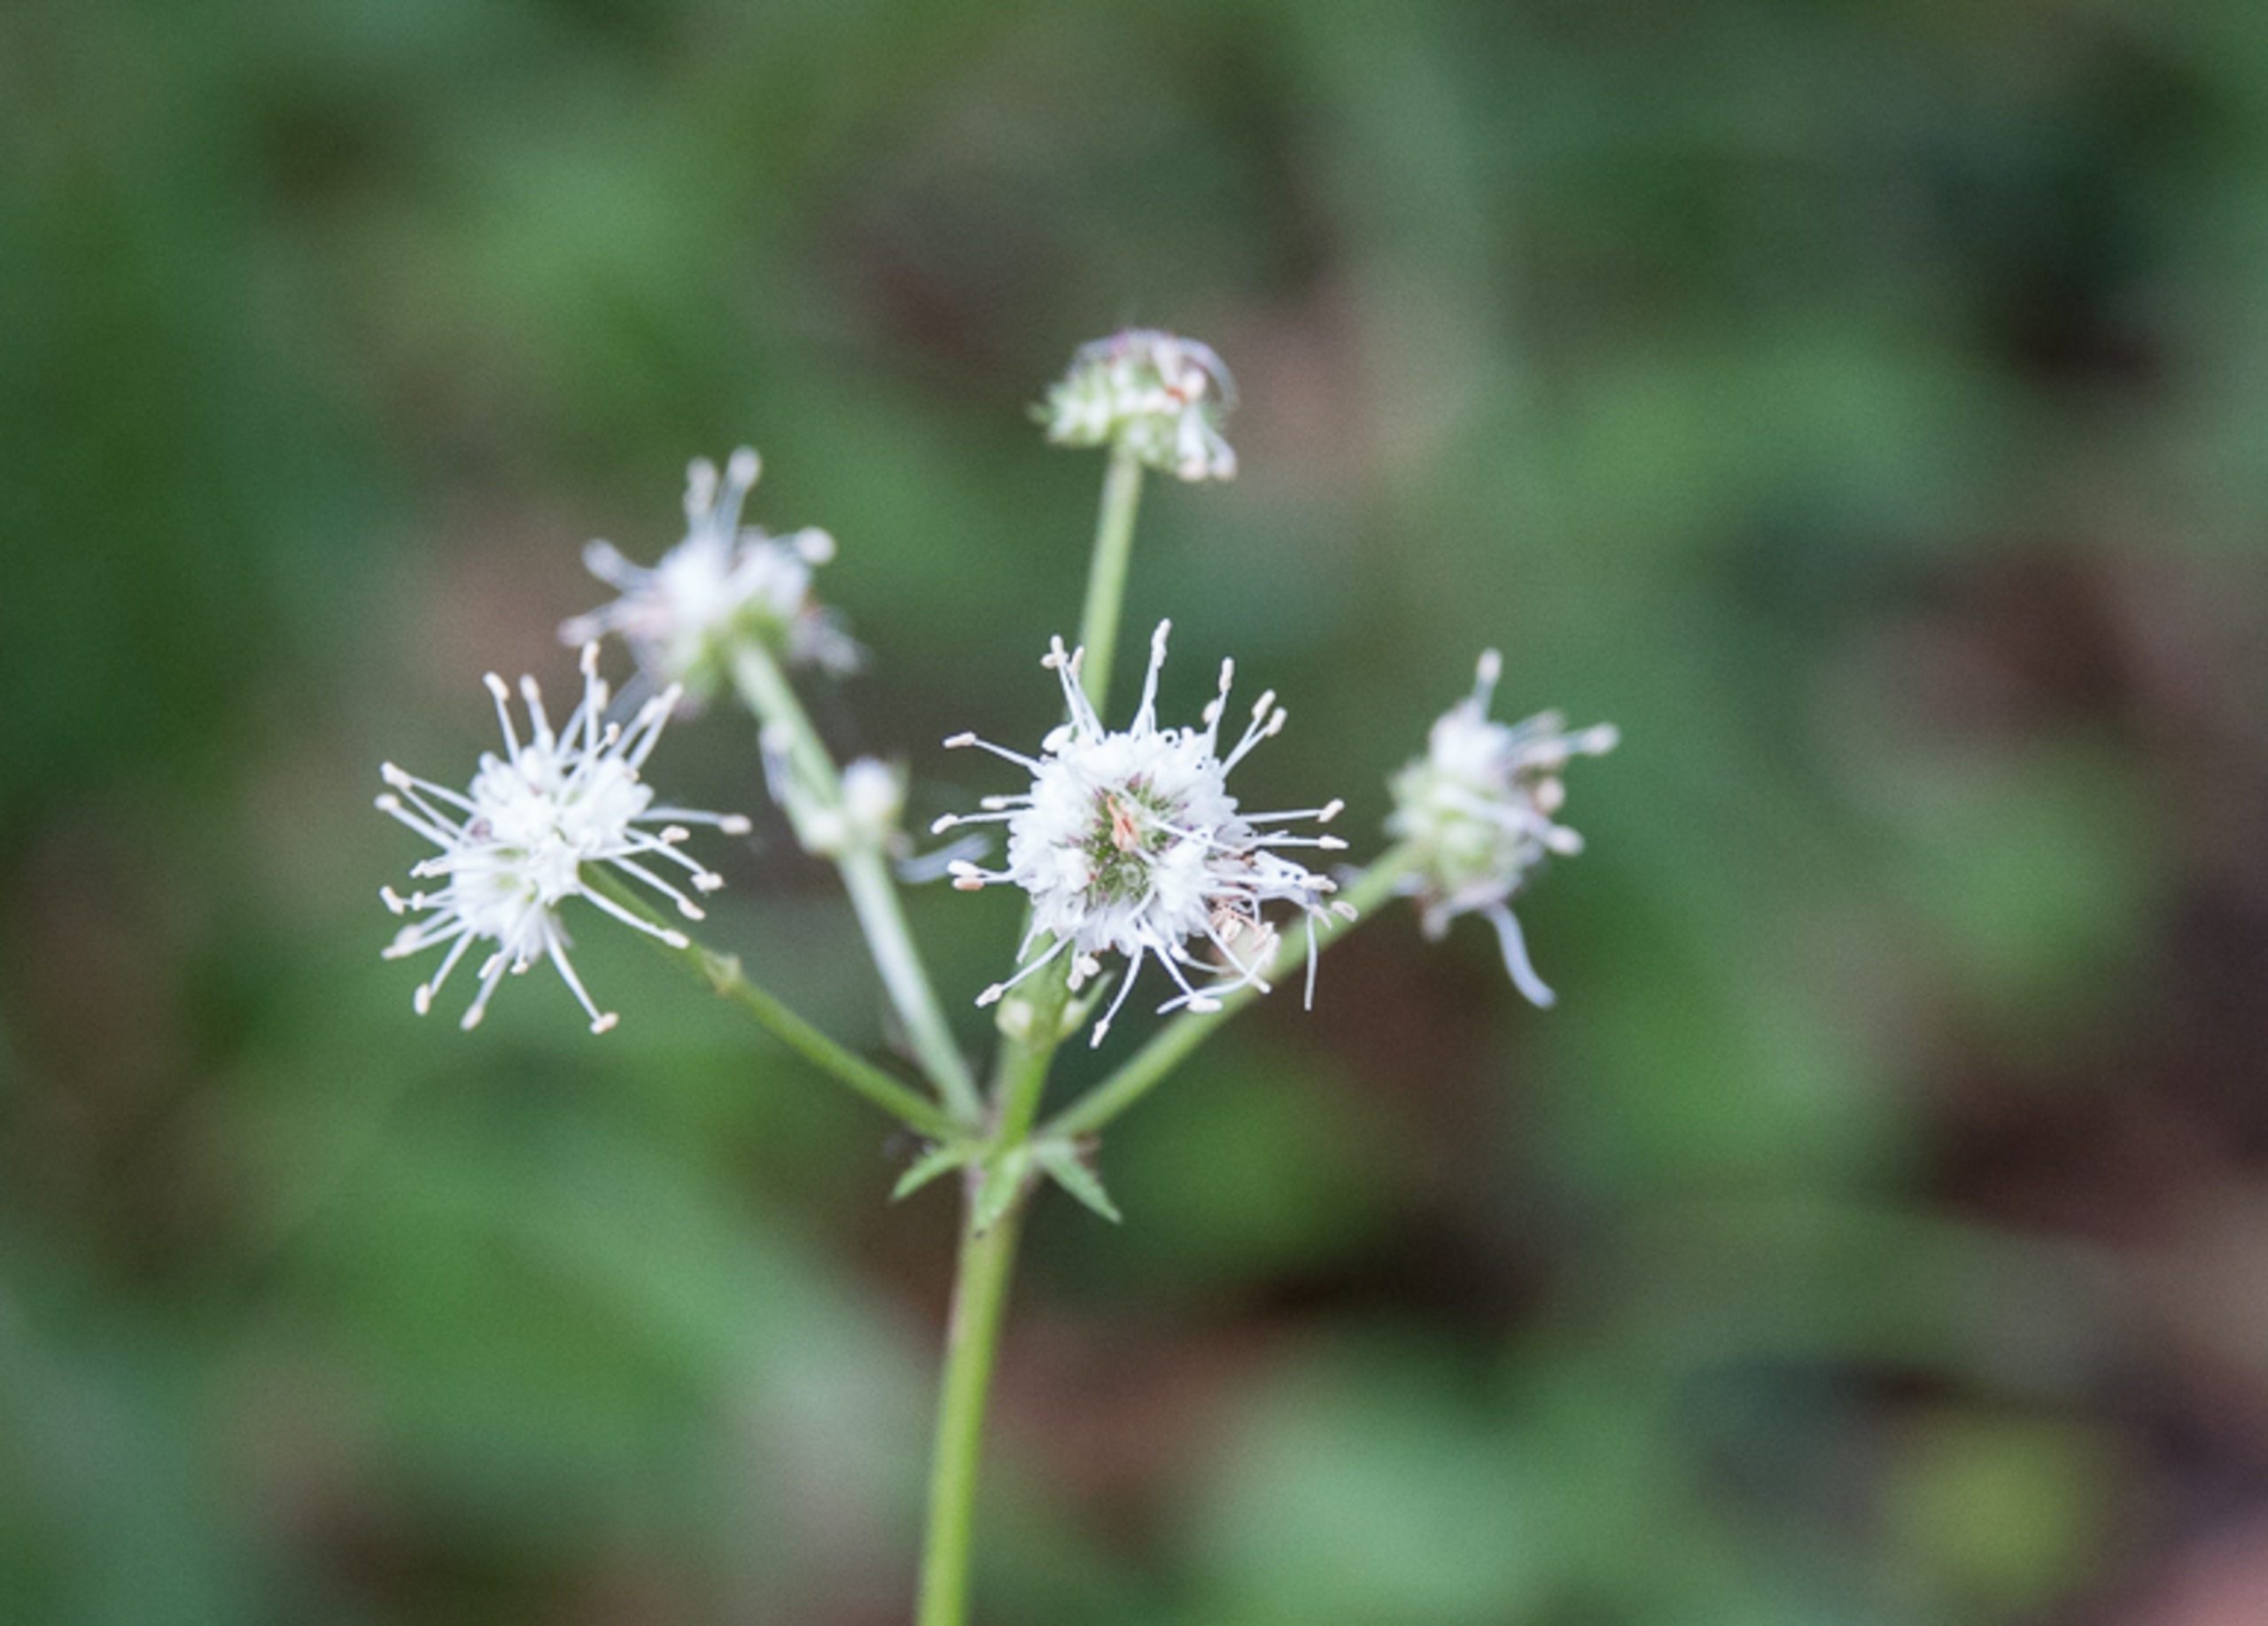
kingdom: Plantae
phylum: Tracheophyta
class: Magnoliopsida
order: Apiales
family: Apiaceae
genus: Sanicula
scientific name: Sanicula europaea
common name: Sanikel
